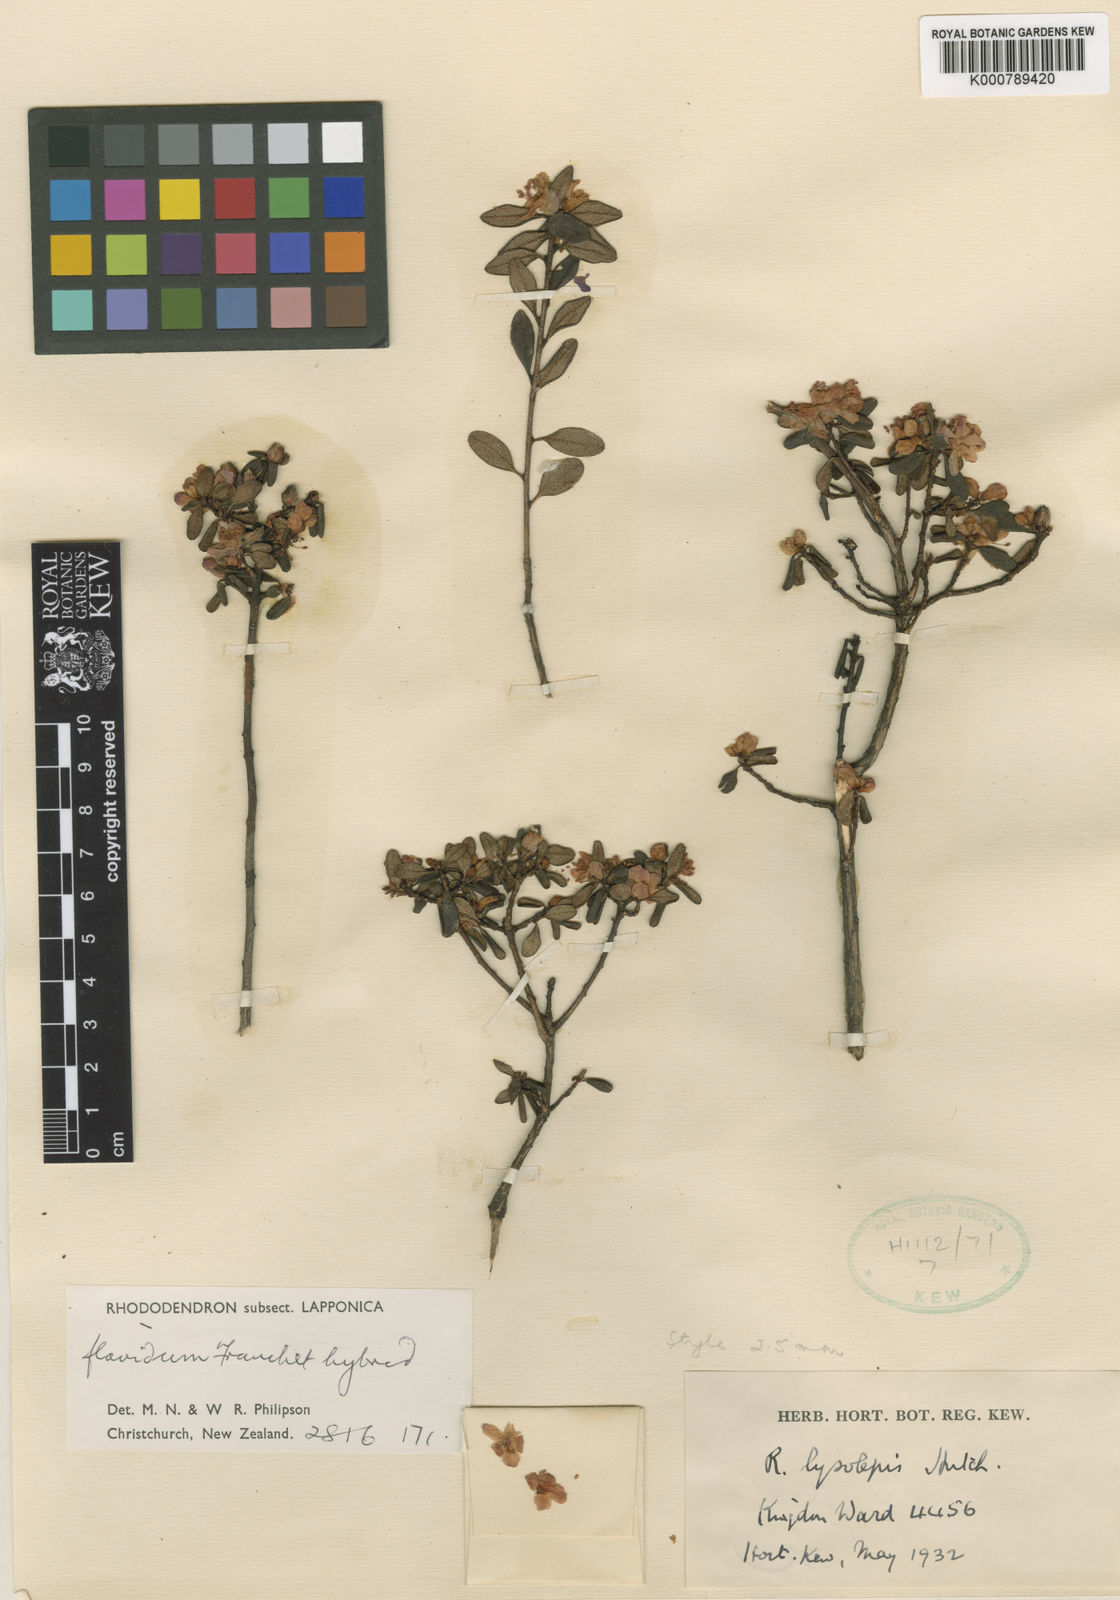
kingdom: Plantae
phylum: Tracheophyta
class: Magnoliopsida
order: Ericales
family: Ericaceae
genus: Rhododendron
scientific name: Rhododendron
